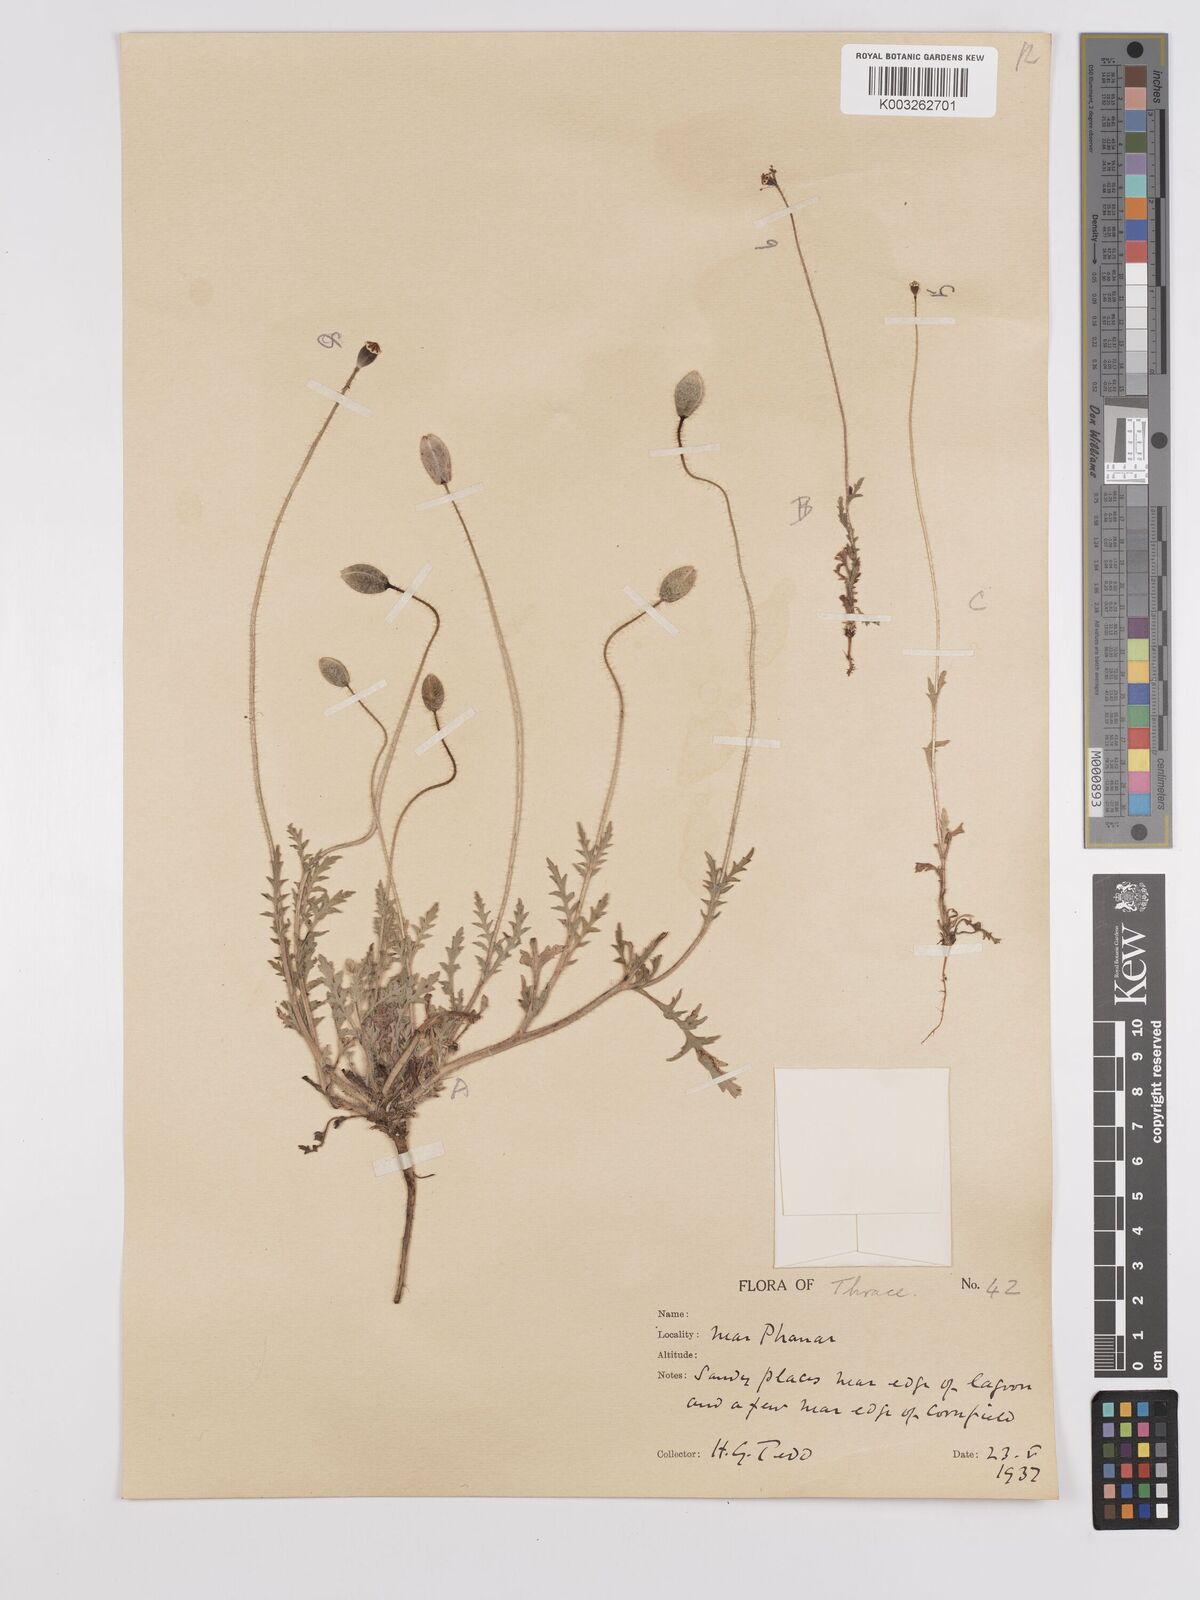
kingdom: Plantae
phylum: Tracheophyta
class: Magnoliopsida
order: Ranunculales
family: Papaveraceae
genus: Papaver
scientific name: Papaver
